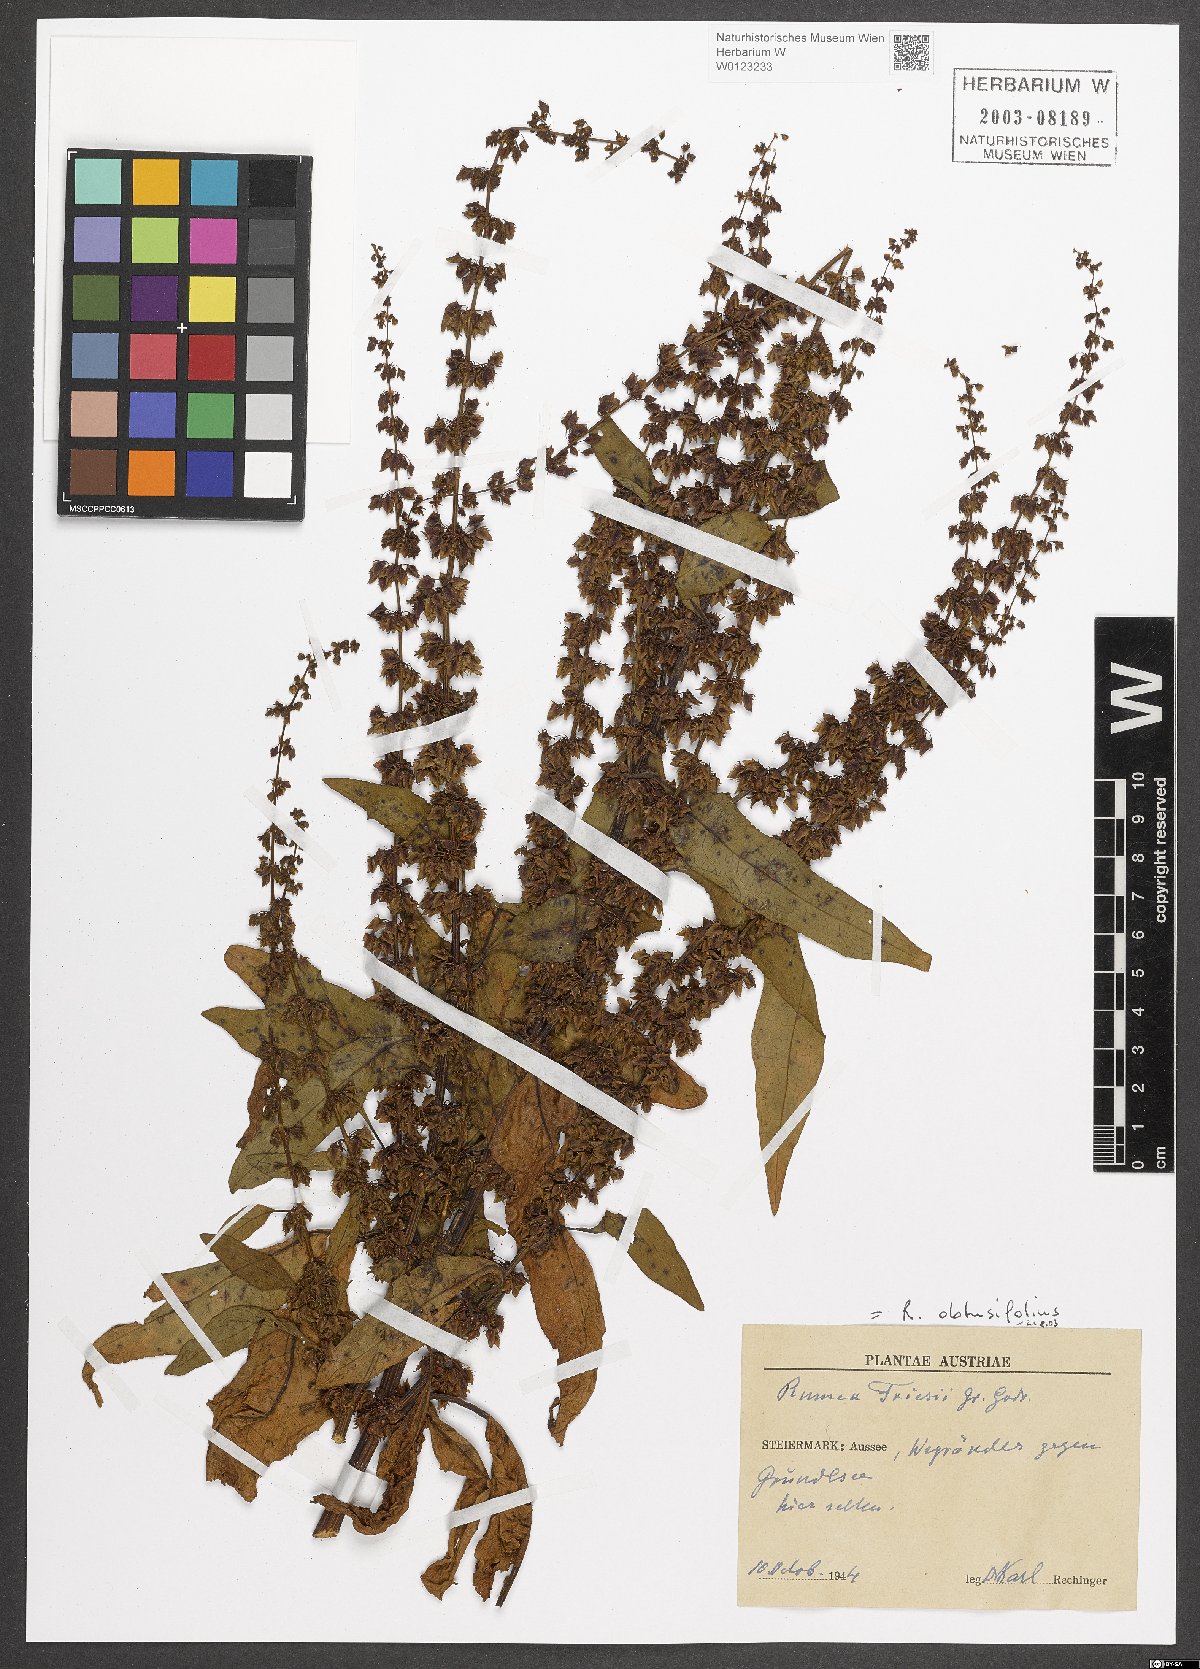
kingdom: Plantae
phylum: Tracheophyta
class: Magnoliopsida
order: Caryophyllales
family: Polygonaceae
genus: Rumex
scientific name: Rumex palustris
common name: Marsh dock
